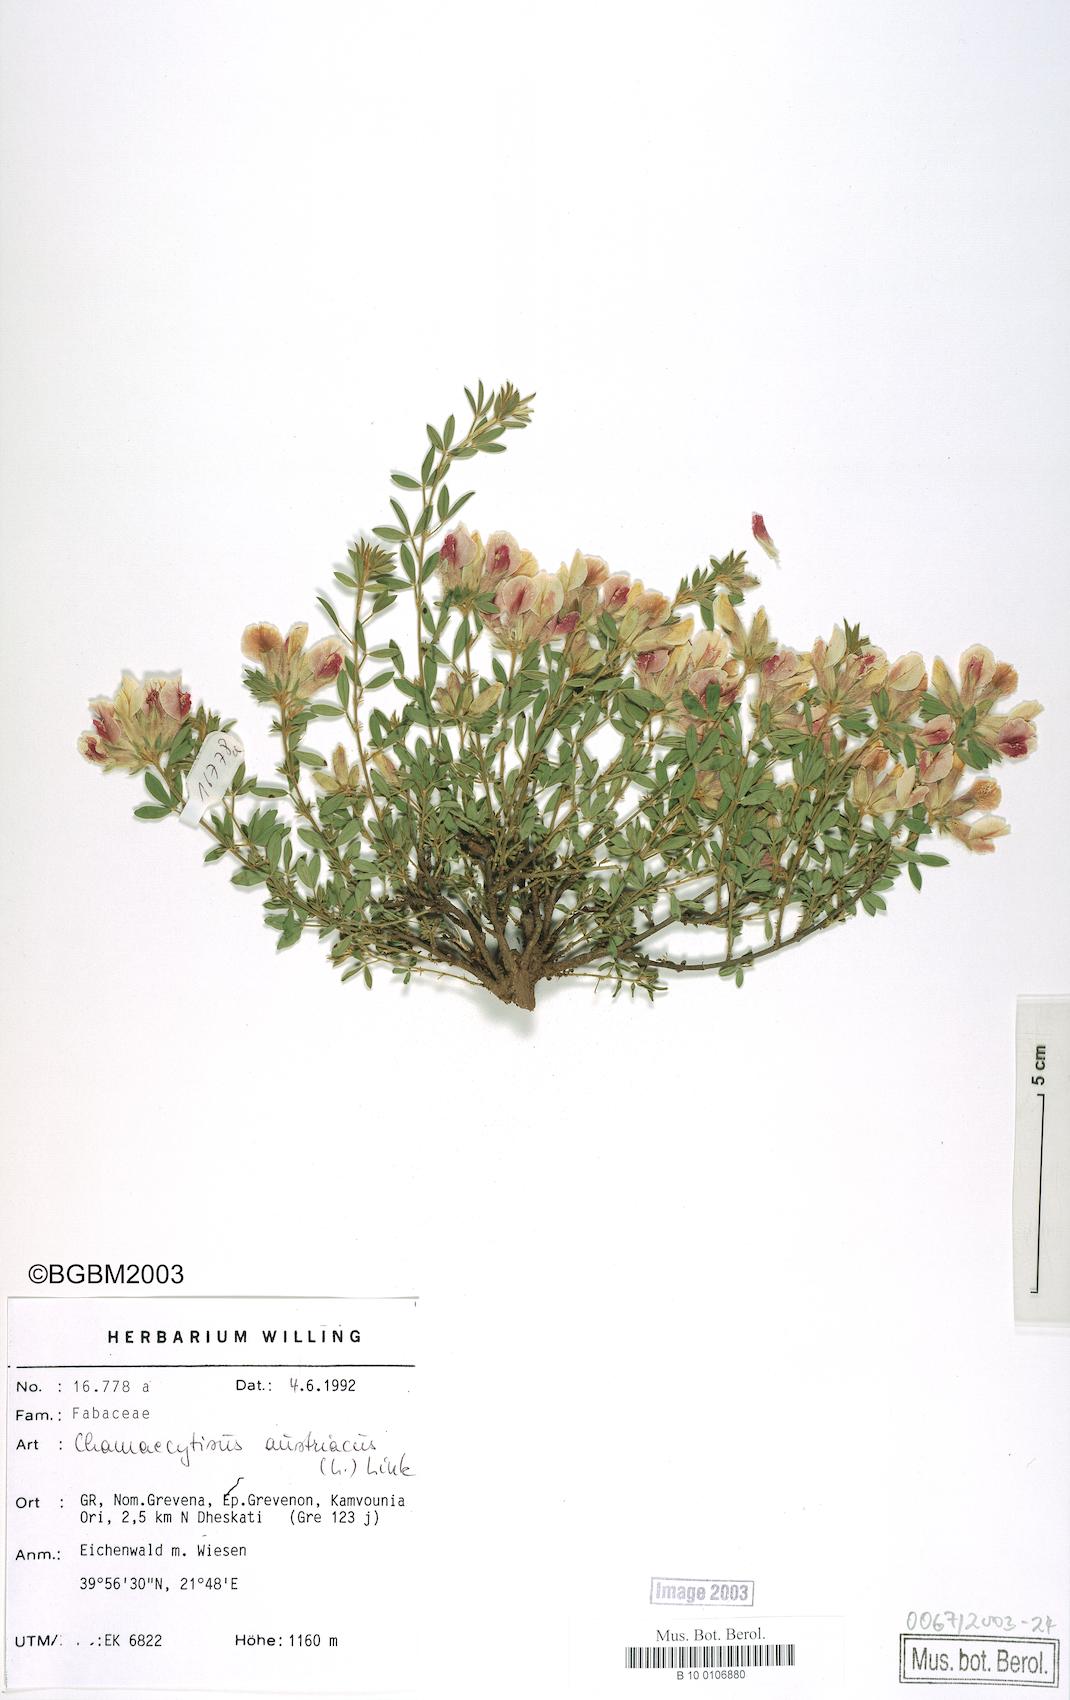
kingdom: Plantae
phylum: Tracheophyta
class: Magnoliopsida
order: Fabales
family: Fabaceae
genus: Chamaecytisus
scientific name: Chamaecytisus austriacus
